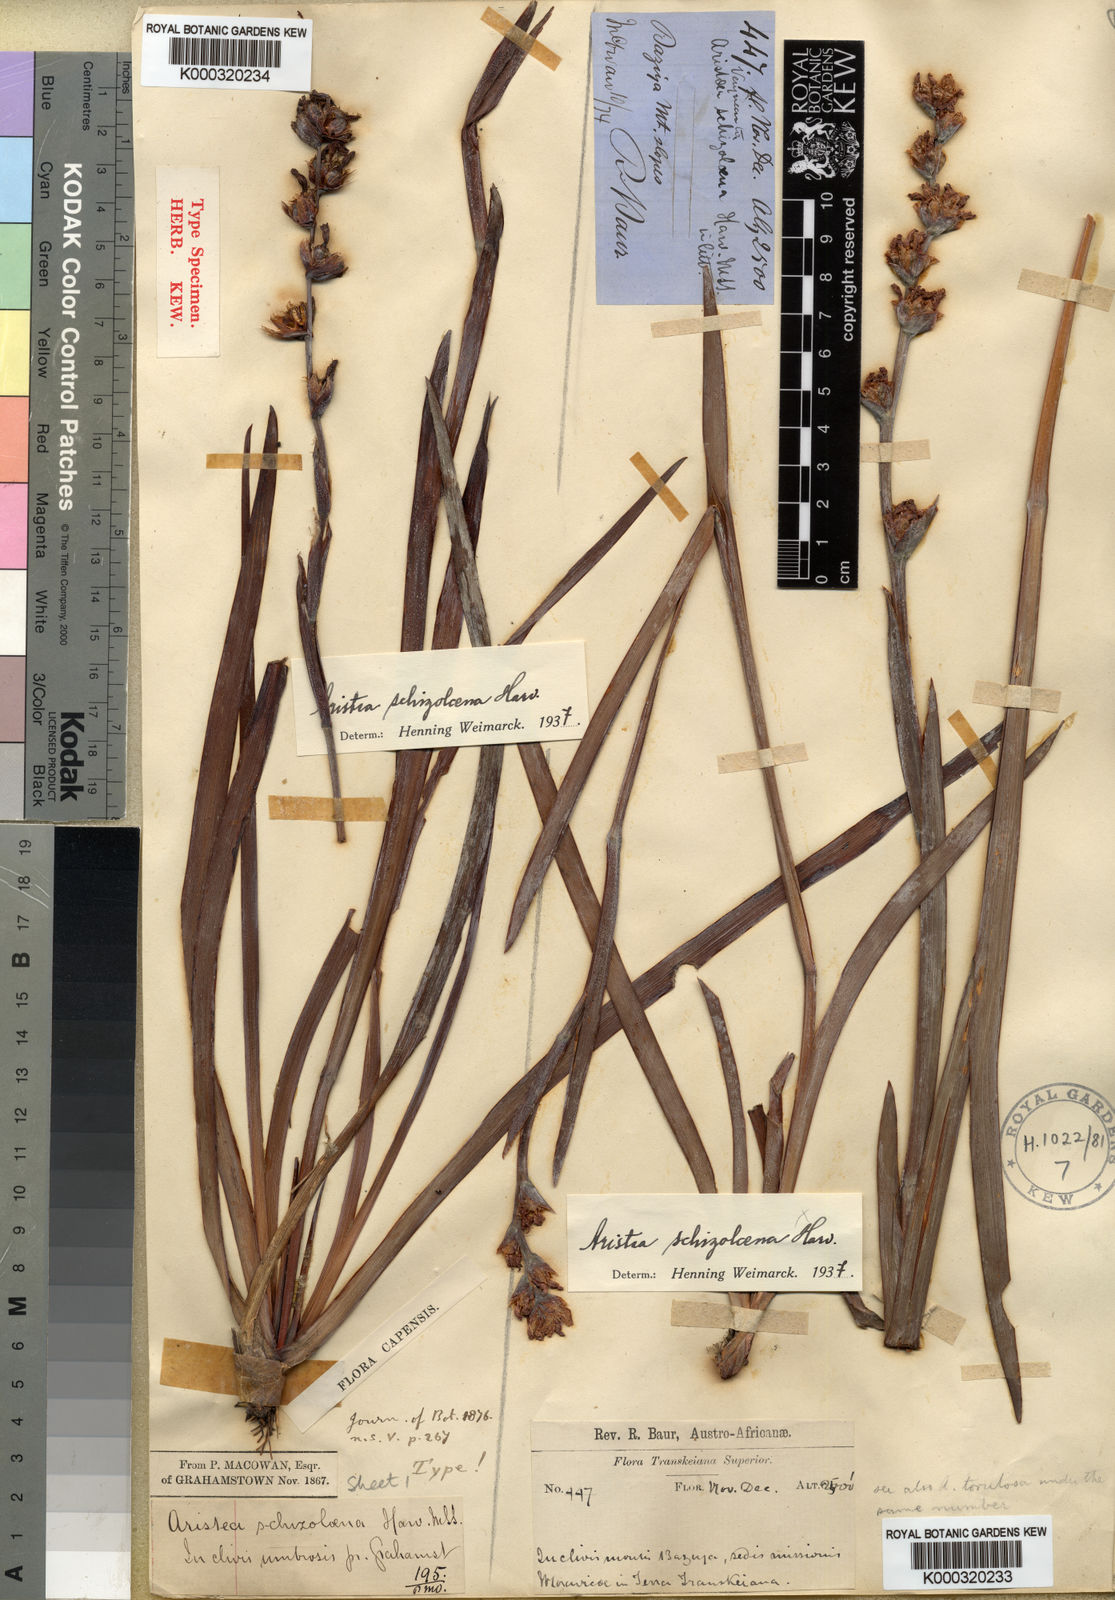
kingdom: Plantae
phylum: Tracheophyta
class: Liliopsida
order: Asparagales
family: Iridaceae
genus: Aristea
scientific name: Aristea schizolaena
